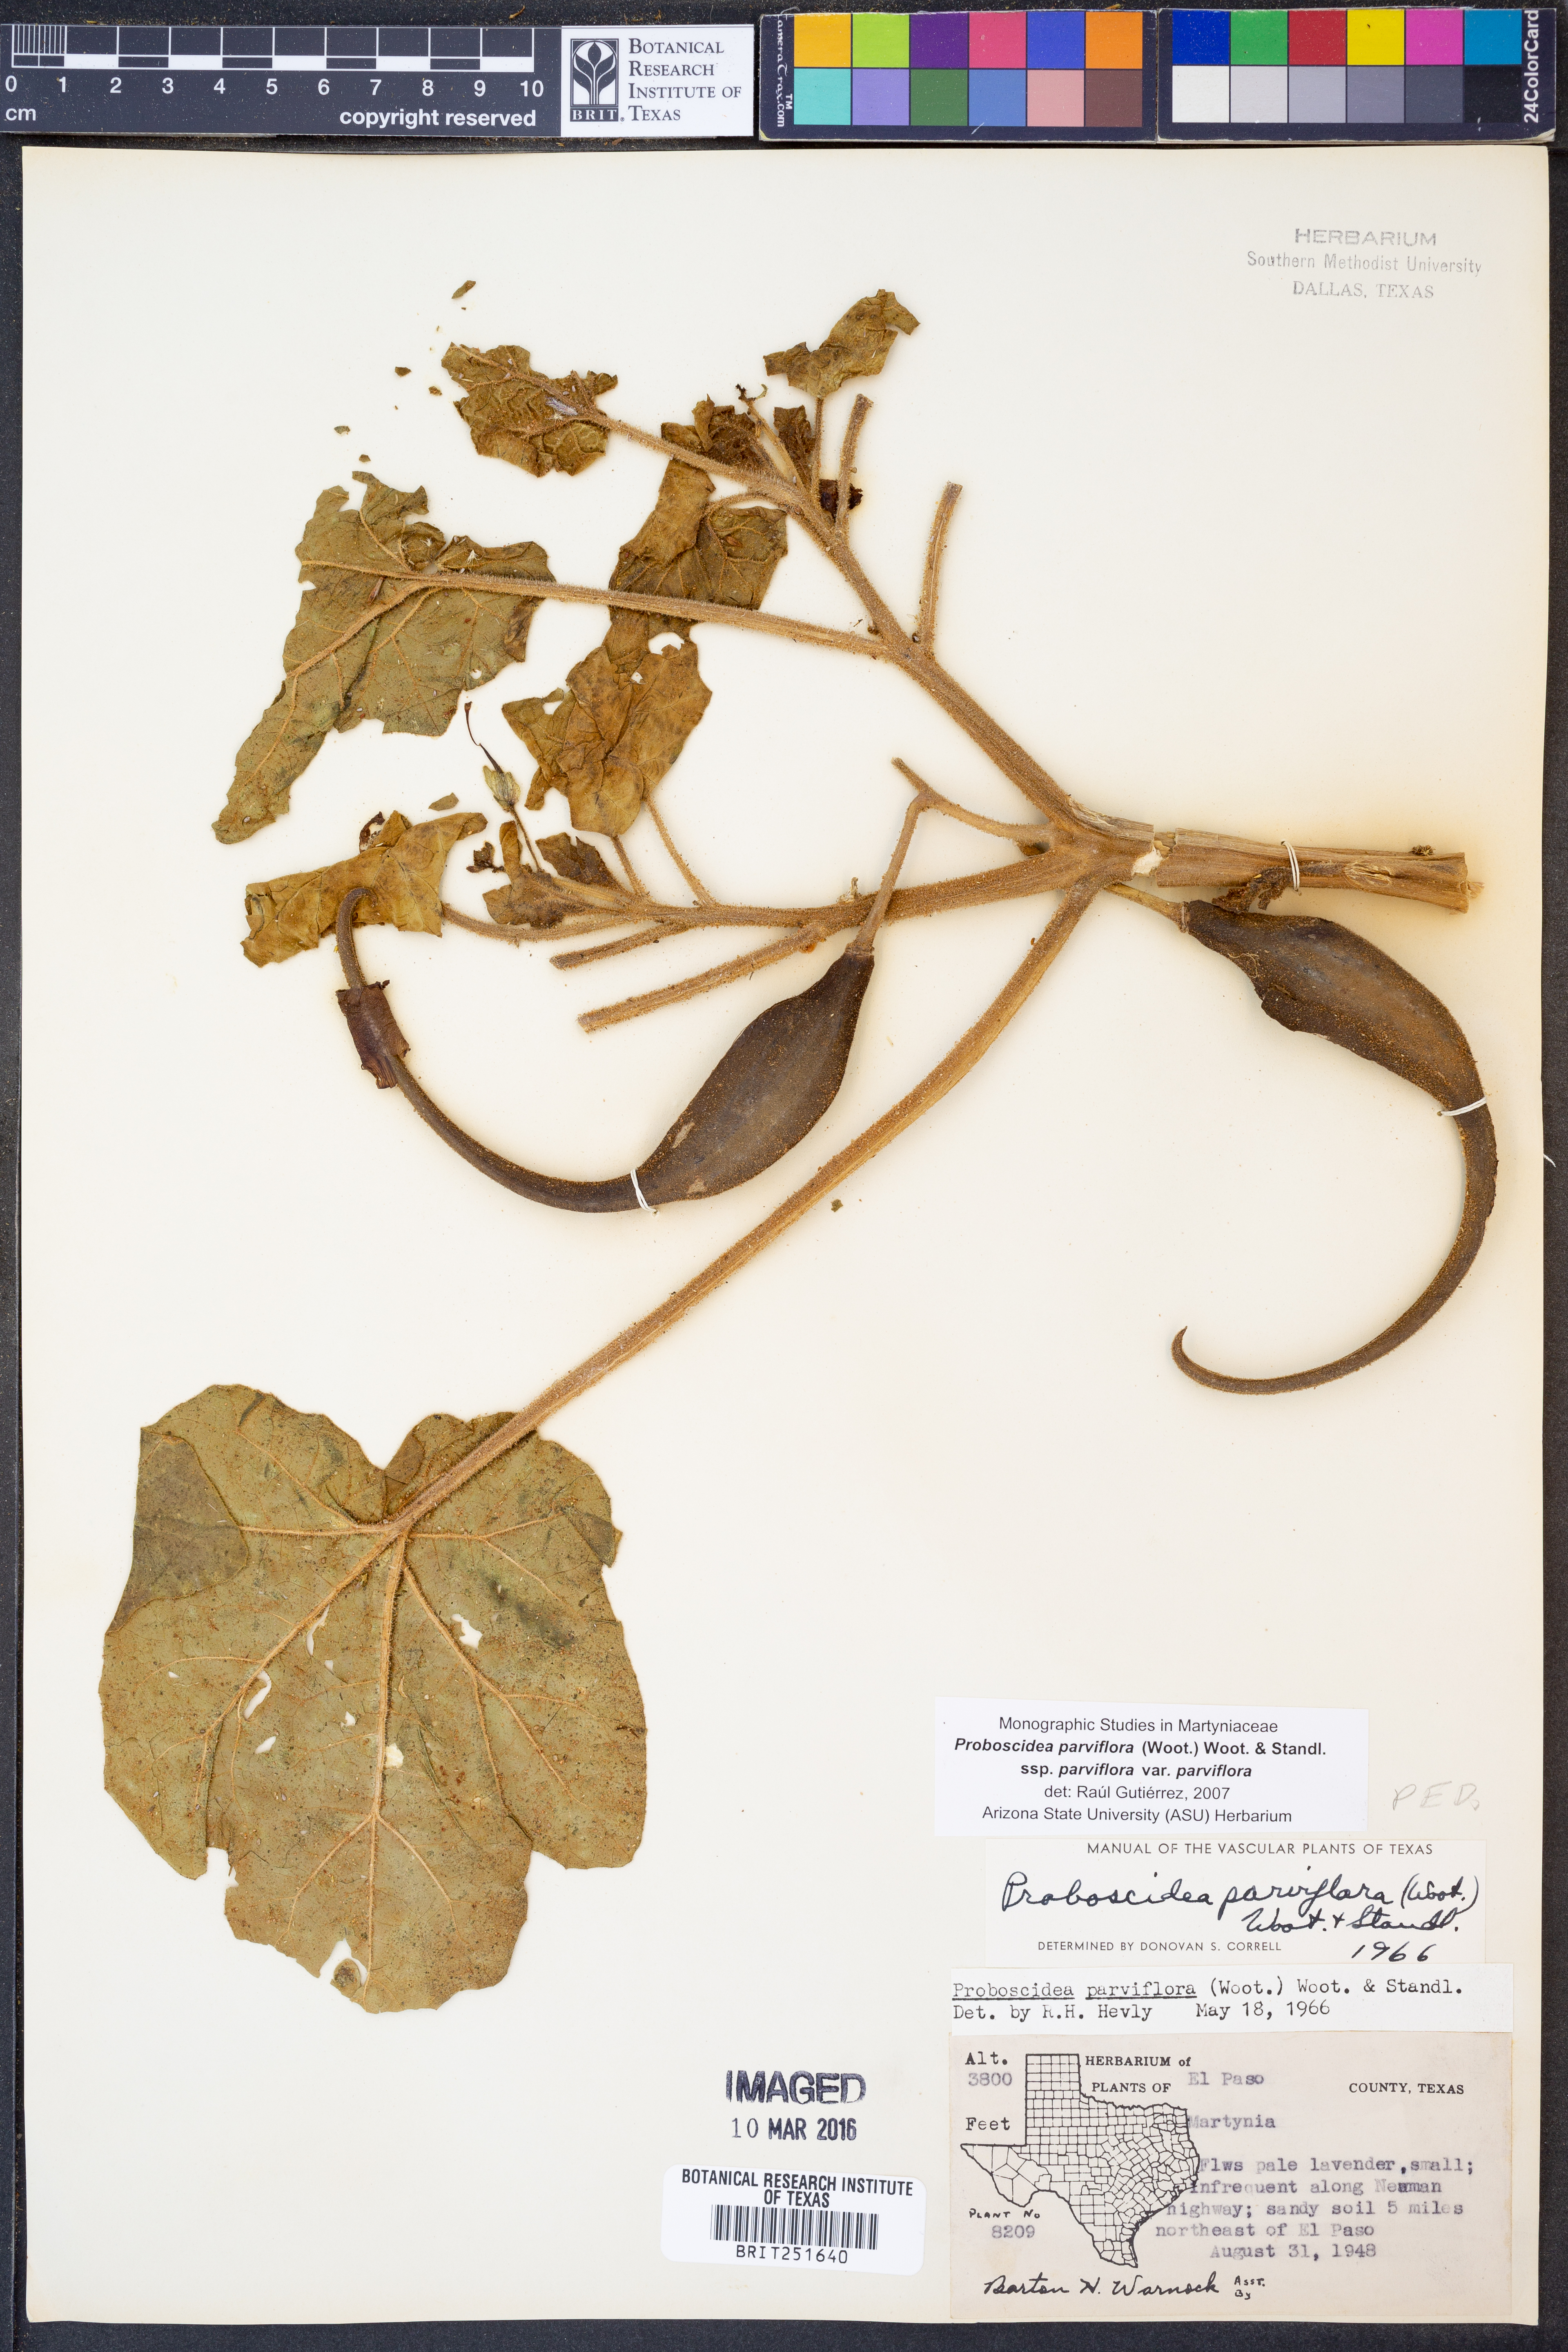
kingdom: Plantae
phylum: Tracheophyta
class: Magnoliopsida
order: Lamiales
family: Martyniaceae
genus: Proboscidea
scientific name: Proboscidea parviflora
